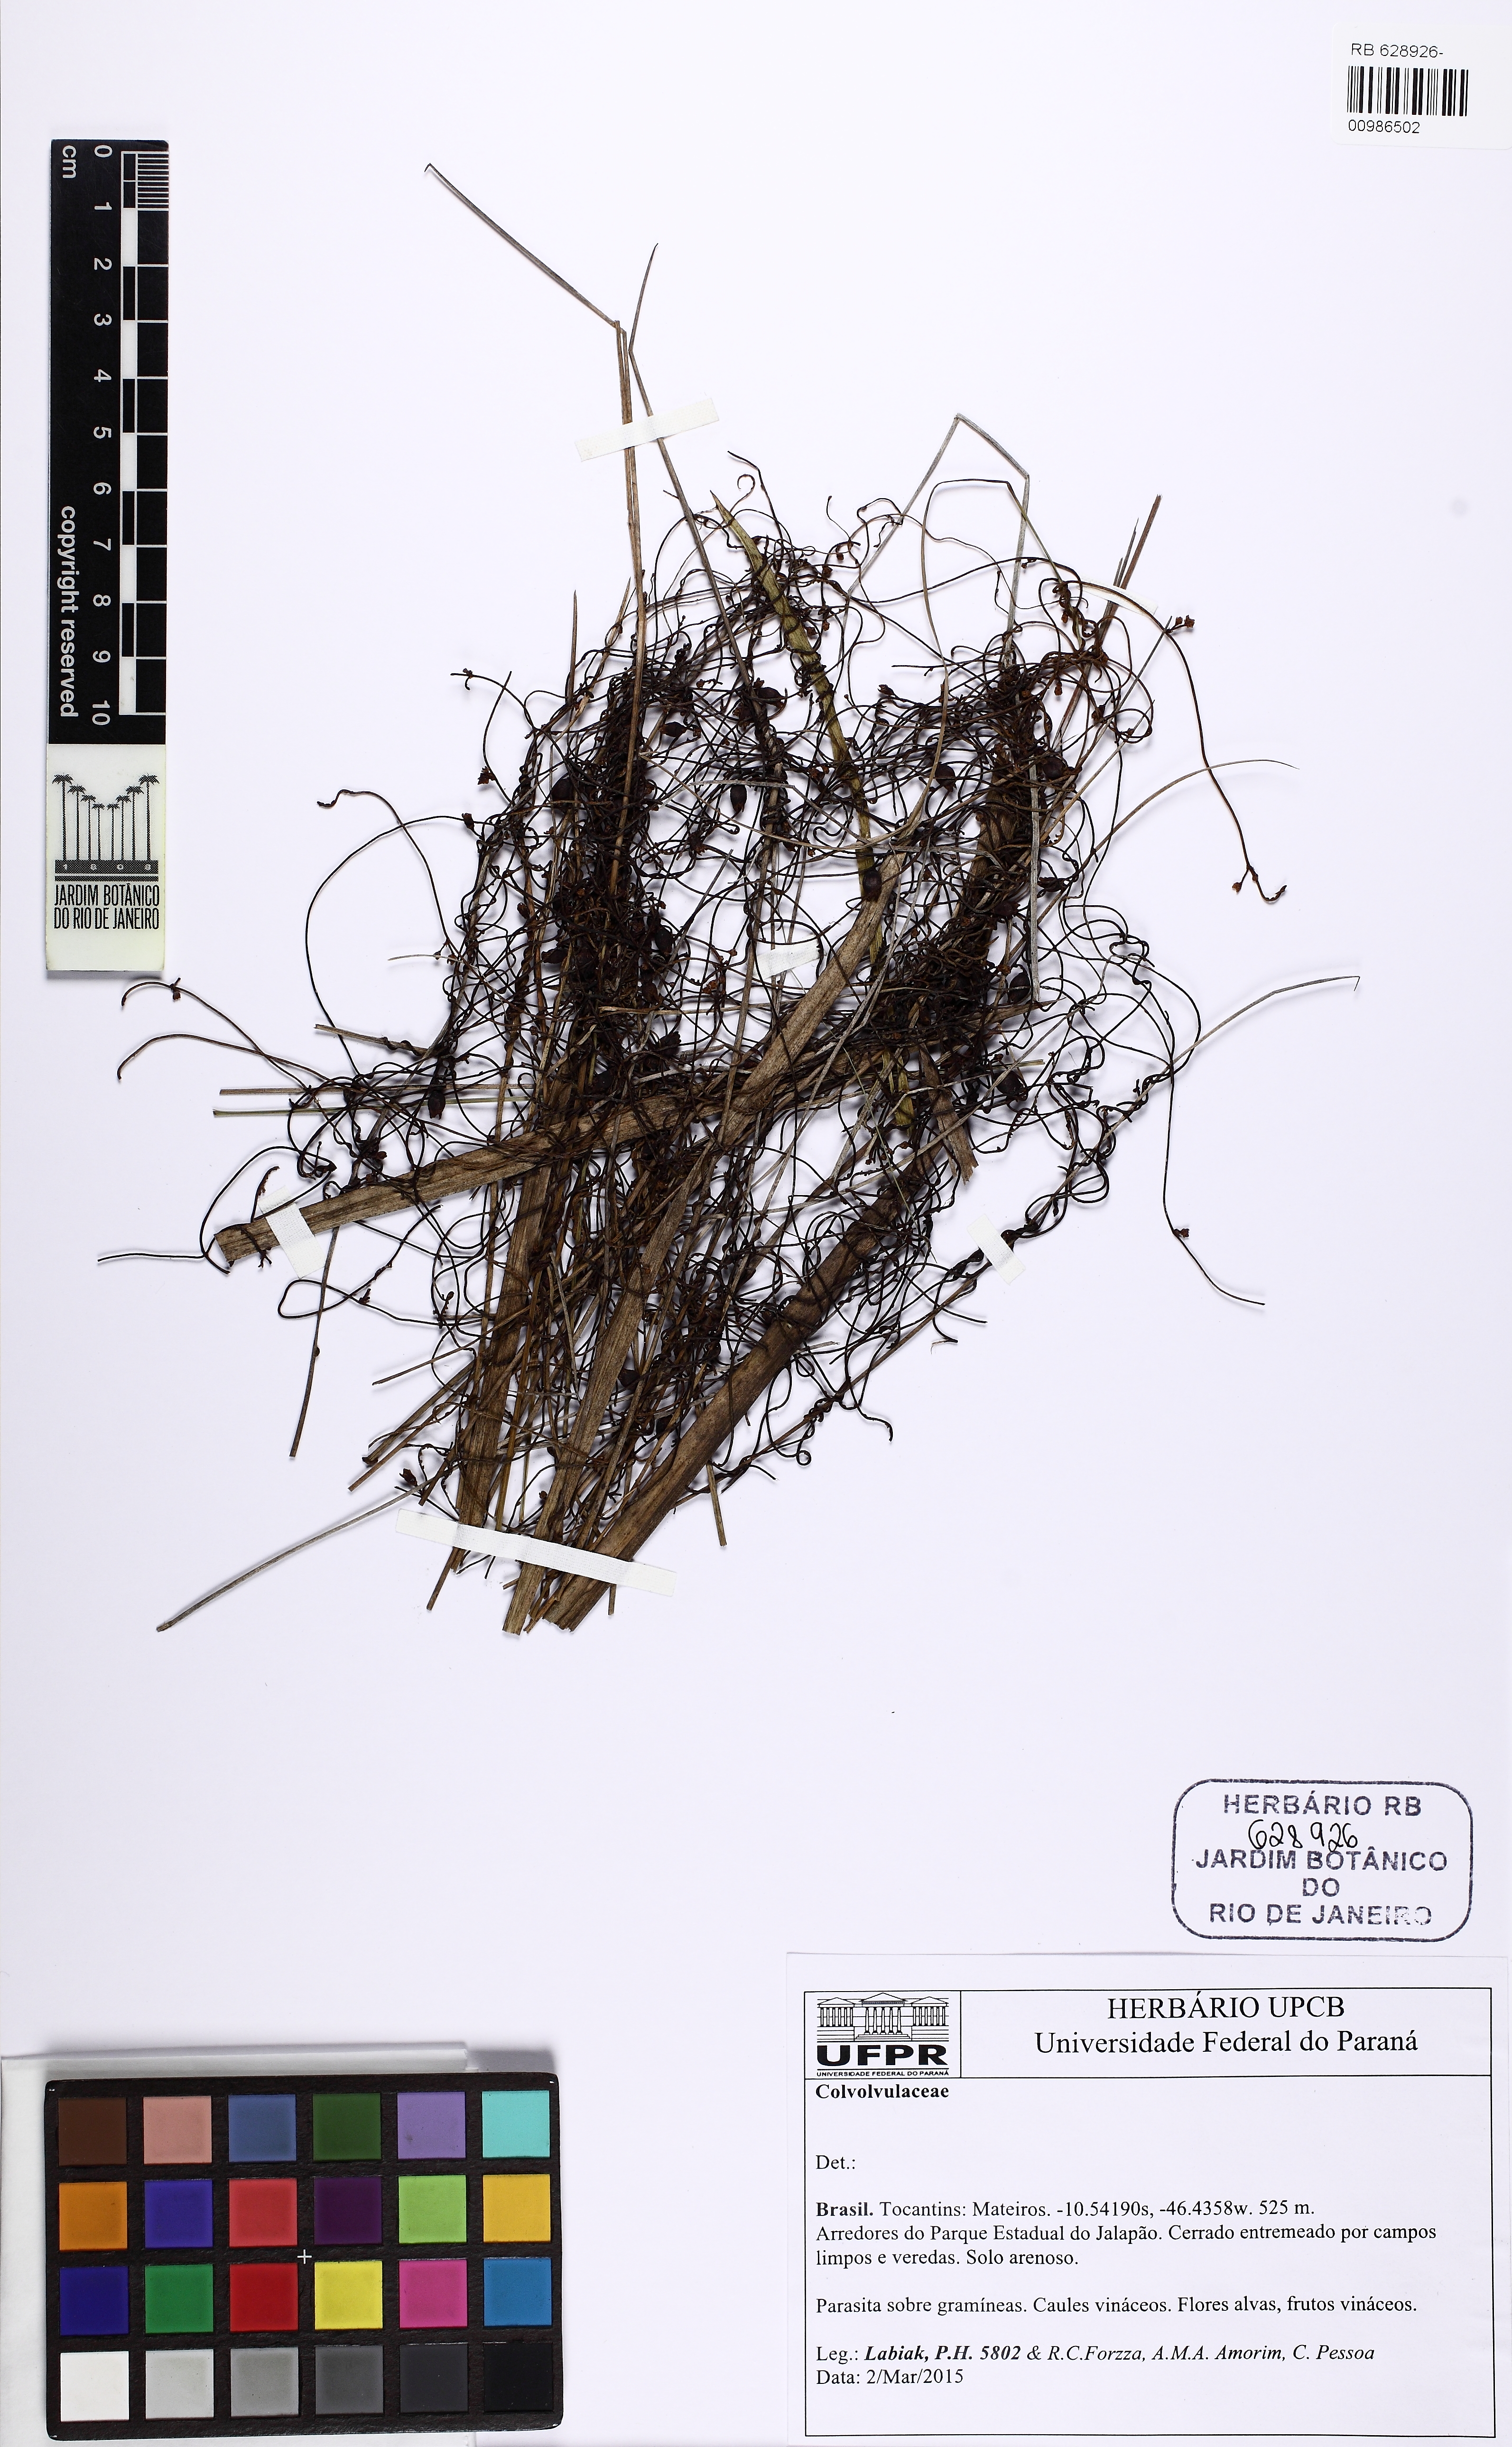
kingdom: Plantae
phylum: Tracheophyta
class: Magnoliopsida
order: Laurales
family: Lauraceae
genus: Cassytha
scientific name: Cassytha filiformis
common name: Dodder-laurel
